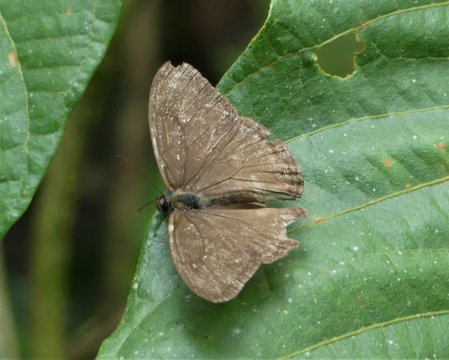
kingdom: Animalia
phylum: Arthropoda
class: Insecta
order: Lepidoptera
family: Nymphalidae
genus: Euptychoides
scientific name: Euptychoides nossis
